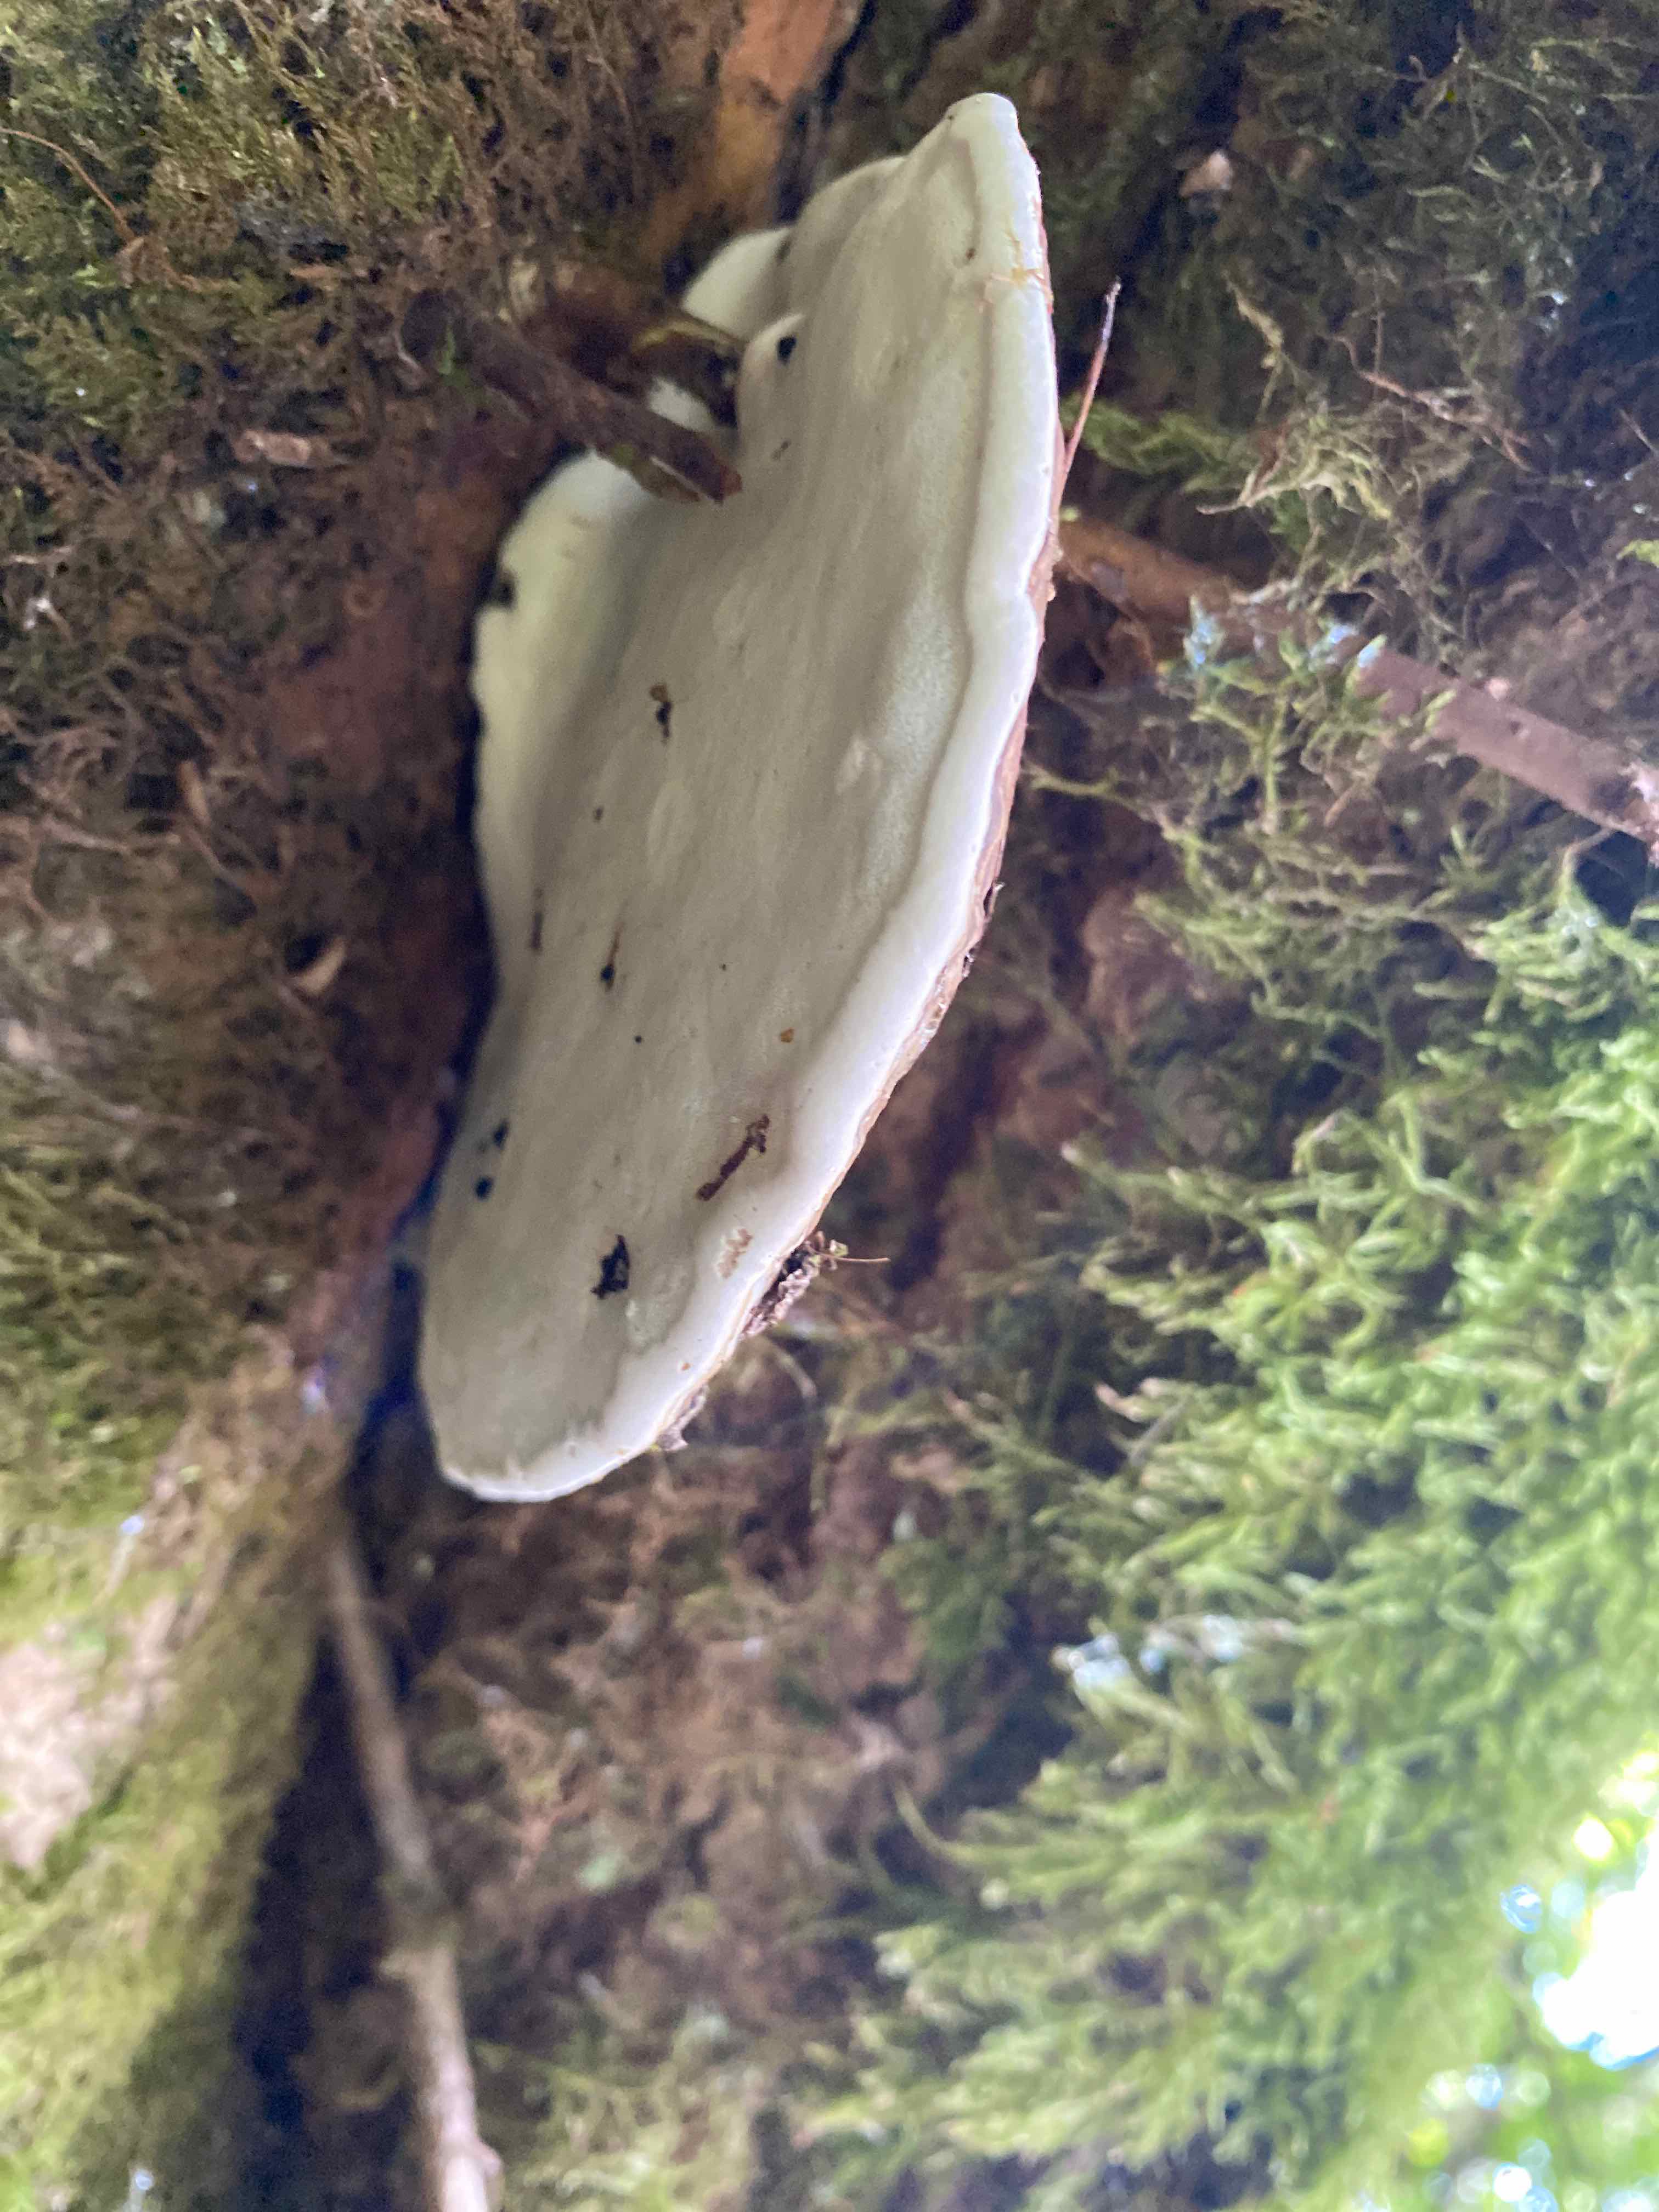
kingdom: Fungi
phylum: Basidiomycota
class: Agaricomycetes
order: Polyporales
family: Polyporaceae
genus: Ganoderma
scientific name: Ganoderma applanatum
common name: flad lakporesvamp
